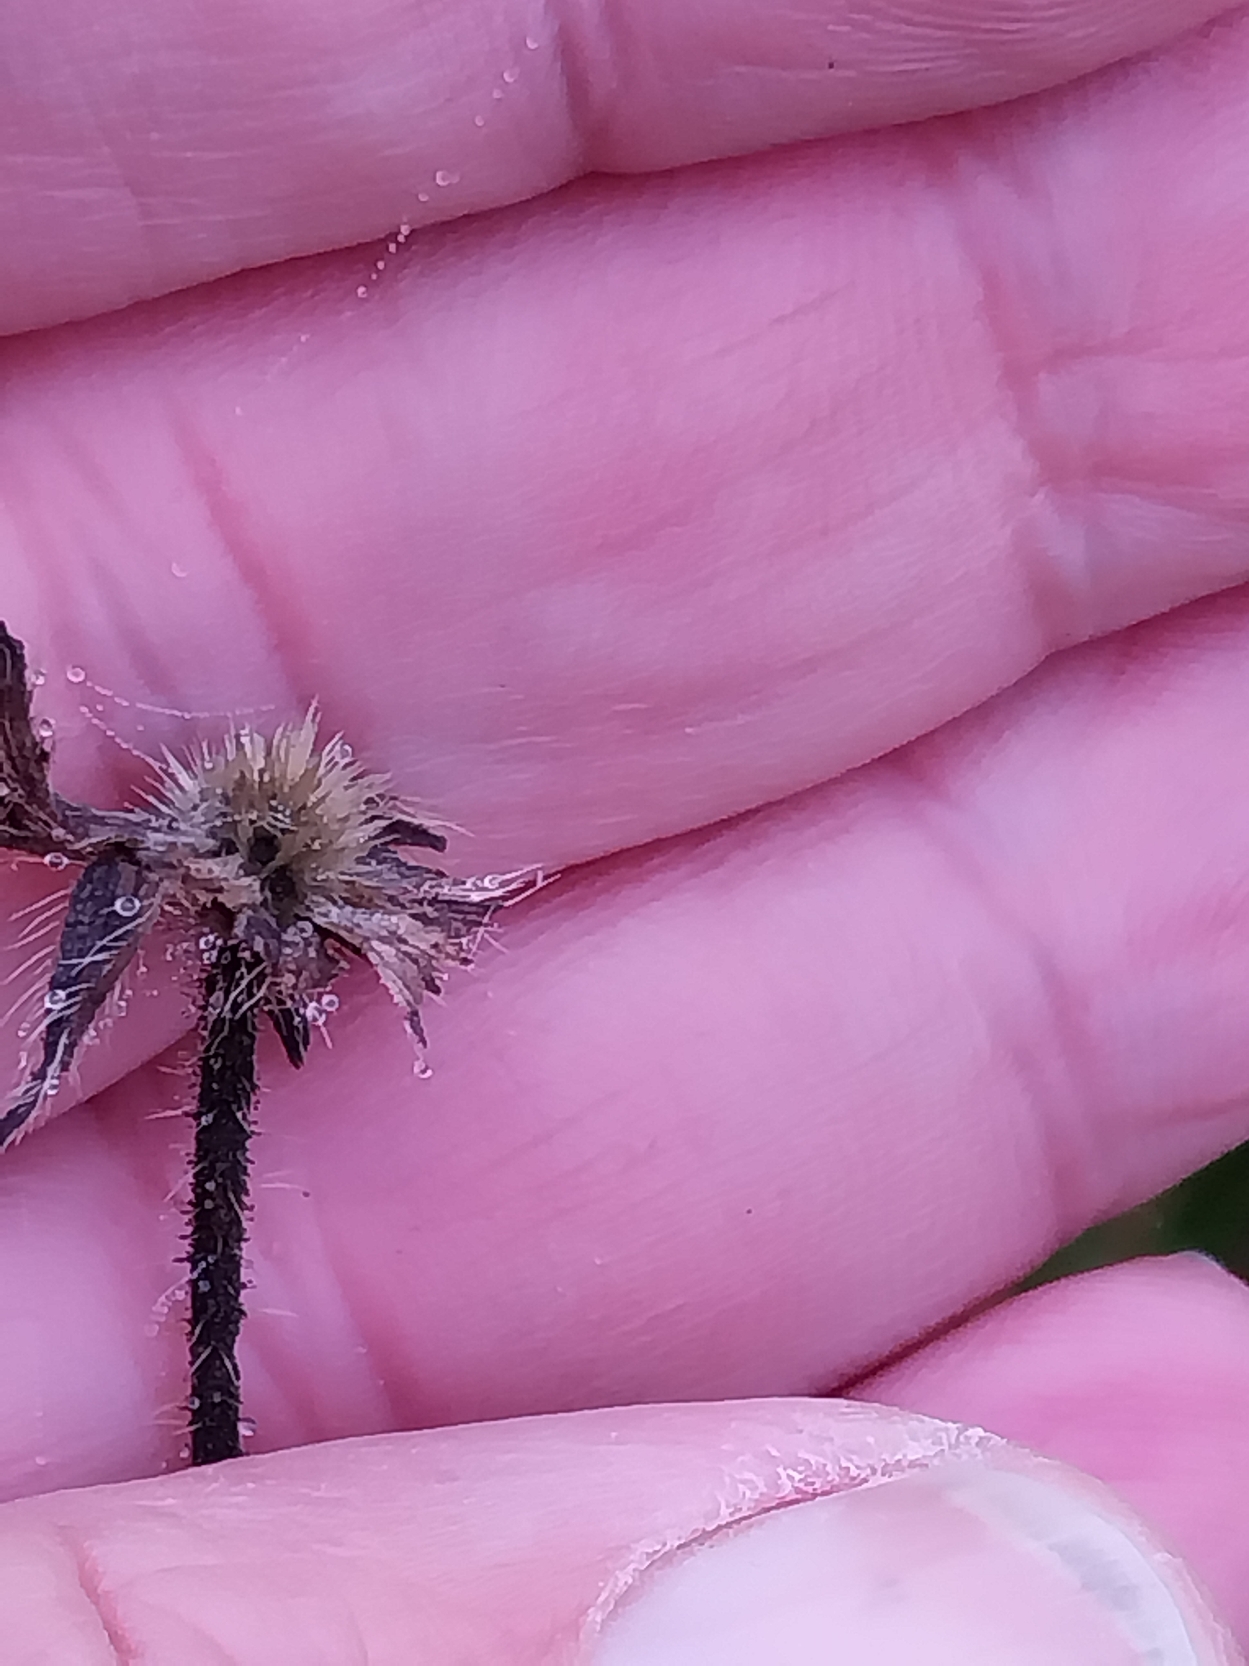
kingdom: Plantae
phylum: Tracheophyta
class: Magnoliopsida
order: Dipsacales
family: Caprifoliaceae
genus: Knautia
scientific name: Knautia arvensis
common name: Blåhat
